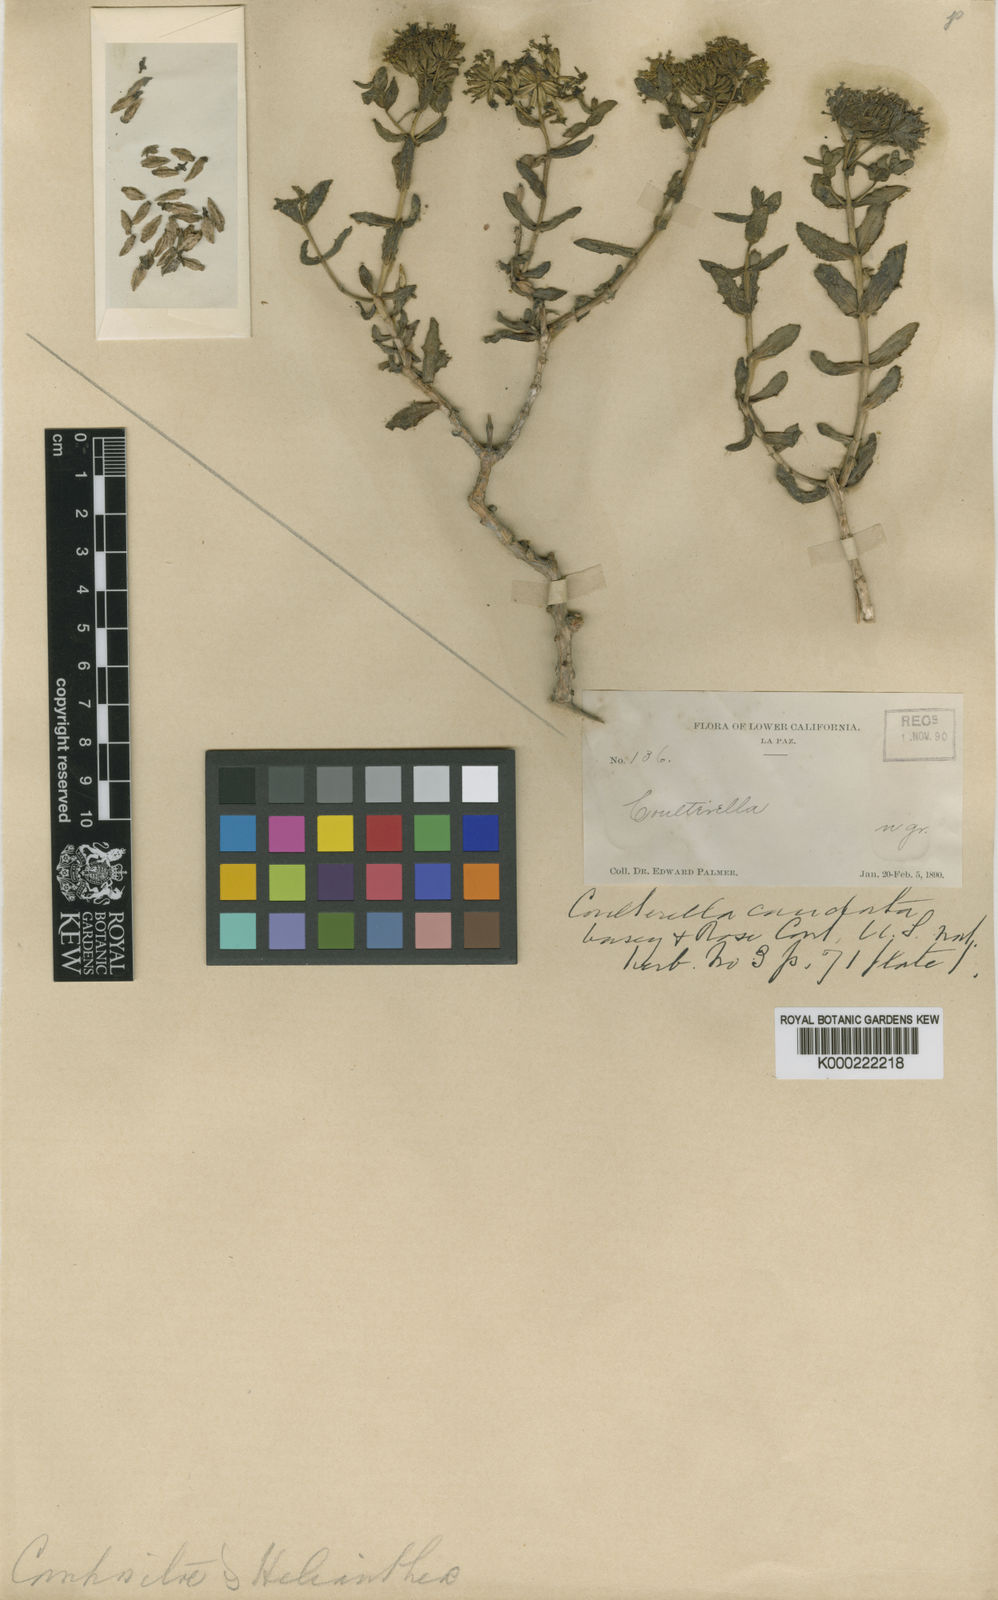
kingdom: Plantae
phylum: Tracheophyta
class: Magnoliopsida
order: Asterales
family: Asteraceae
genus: Coulterella
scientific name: Coulterella capitata
